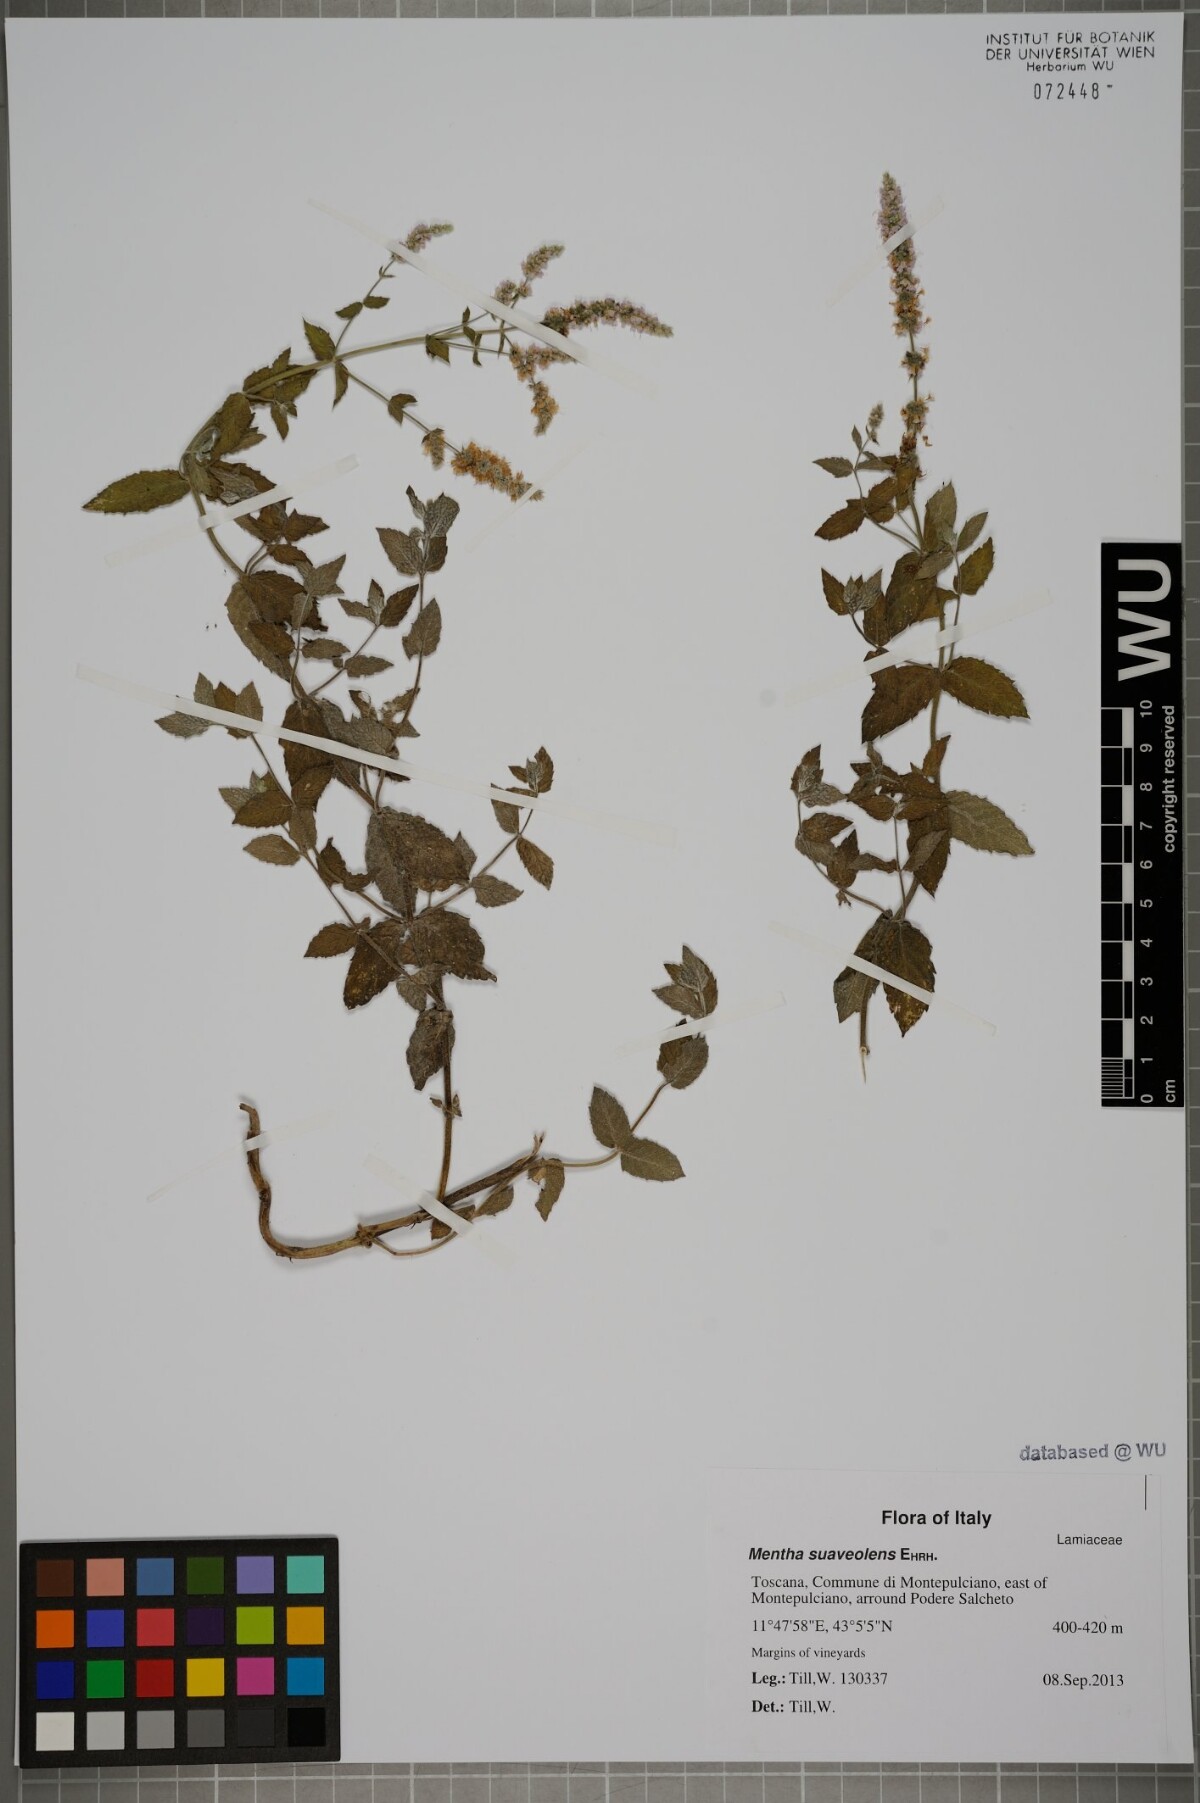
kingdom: Plantae
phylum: Tracheophyta
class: Magnoliopsida
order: Lamiales
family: Lamiaceae
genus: Mentha
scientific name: Mentha suaveolens
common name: Apple mint
